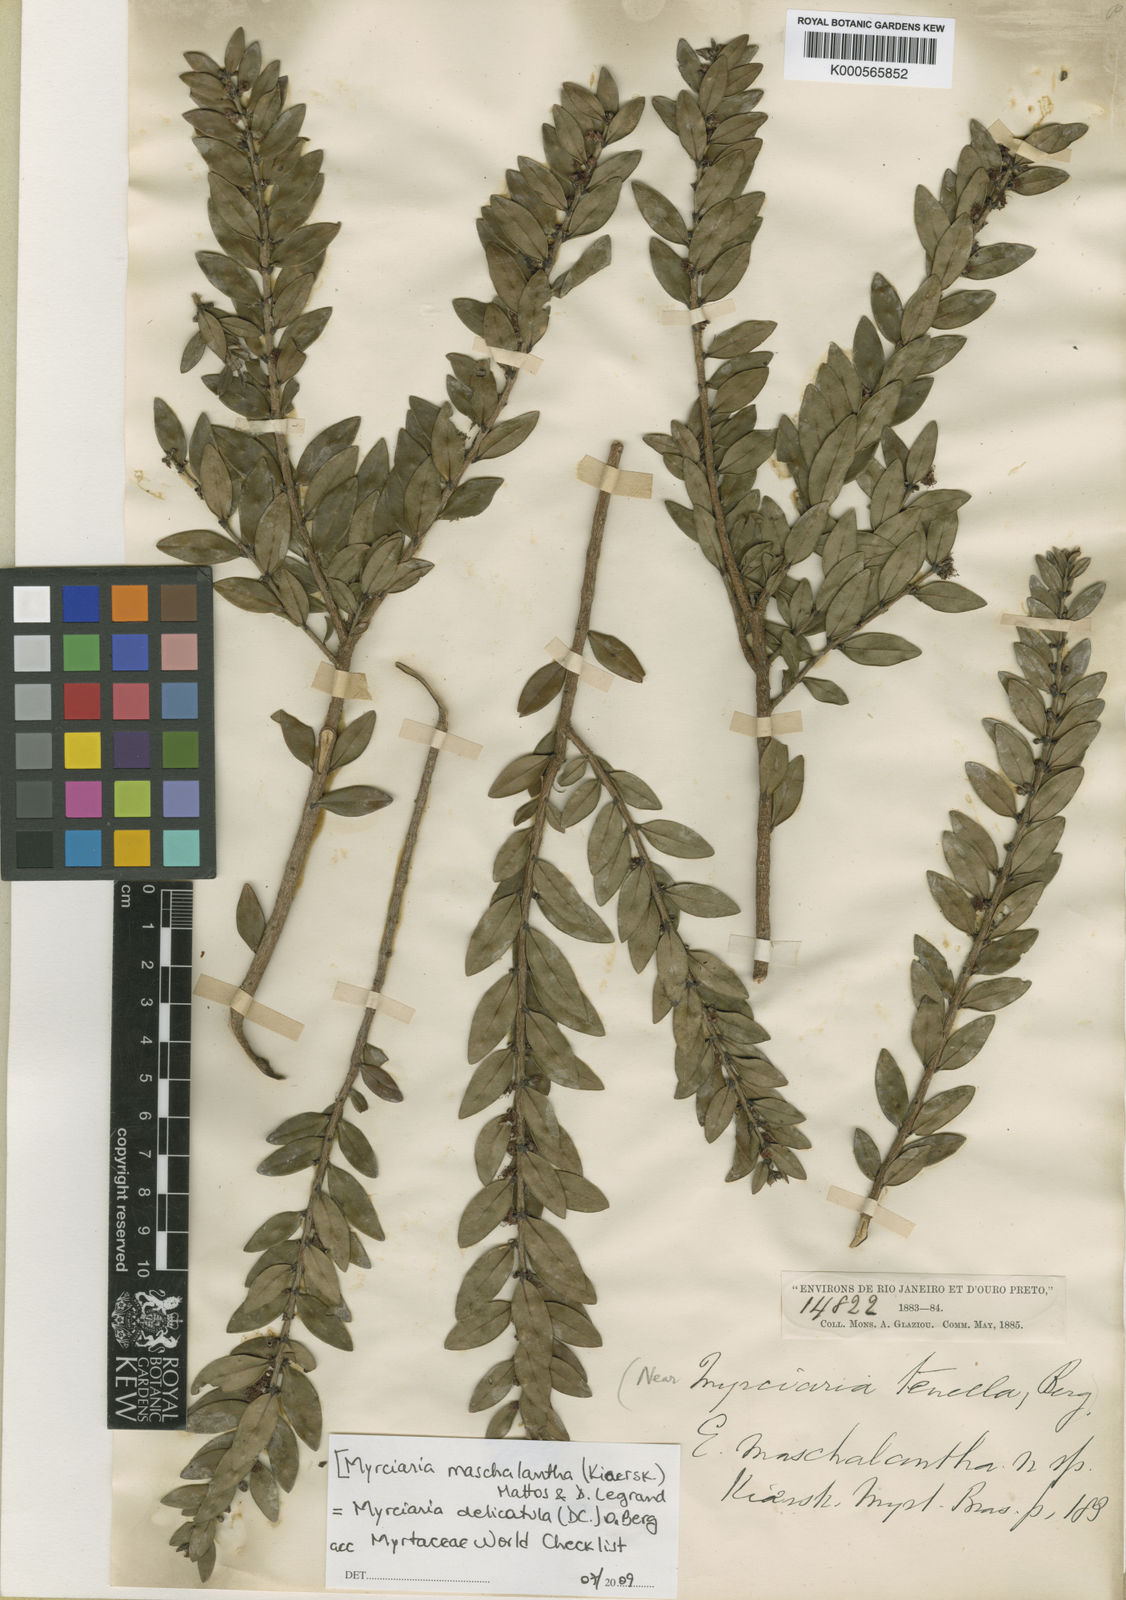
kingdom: Plantae
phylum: Tracheophyta
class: Magnoliopsida
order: Myrtales
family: Myrtaceae
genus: Myrciaria
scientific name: Myrciaria delicatula
